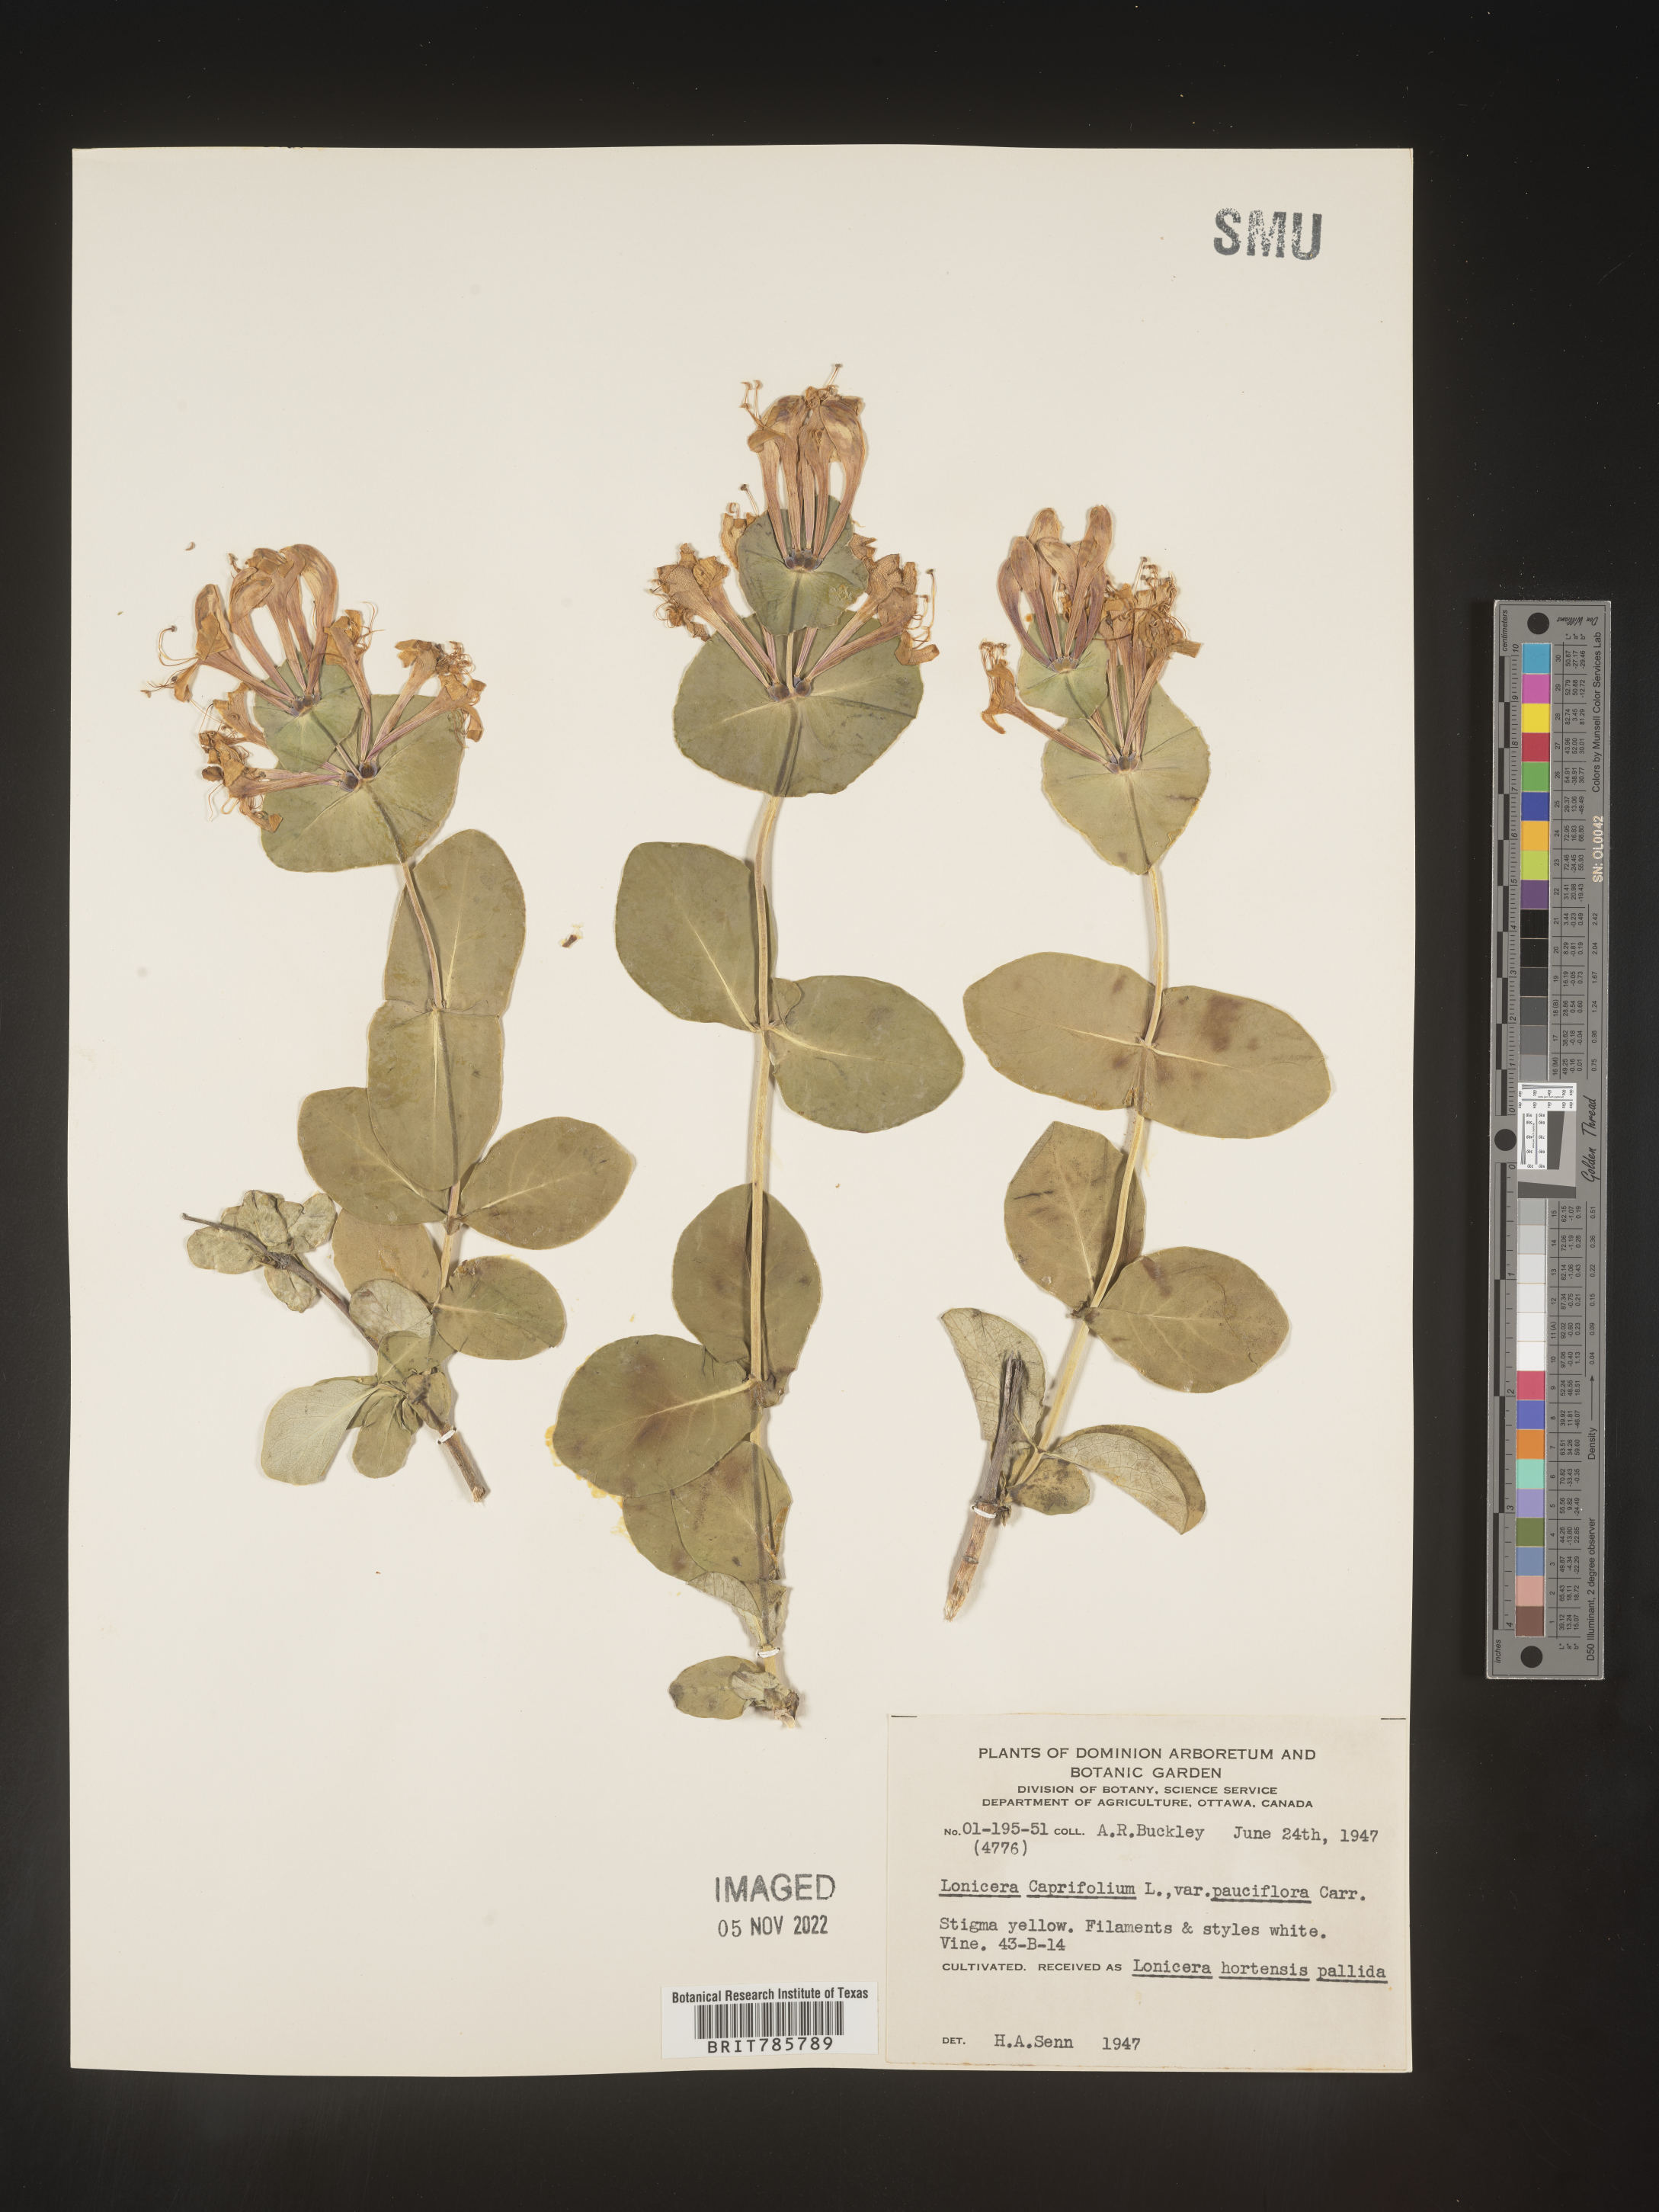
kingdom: Plantae
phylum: Tracheophyta
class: Magnoliopsida
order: Dipsacales
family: Caprifoliaceae
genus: Lonicera
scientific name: Lonicera
